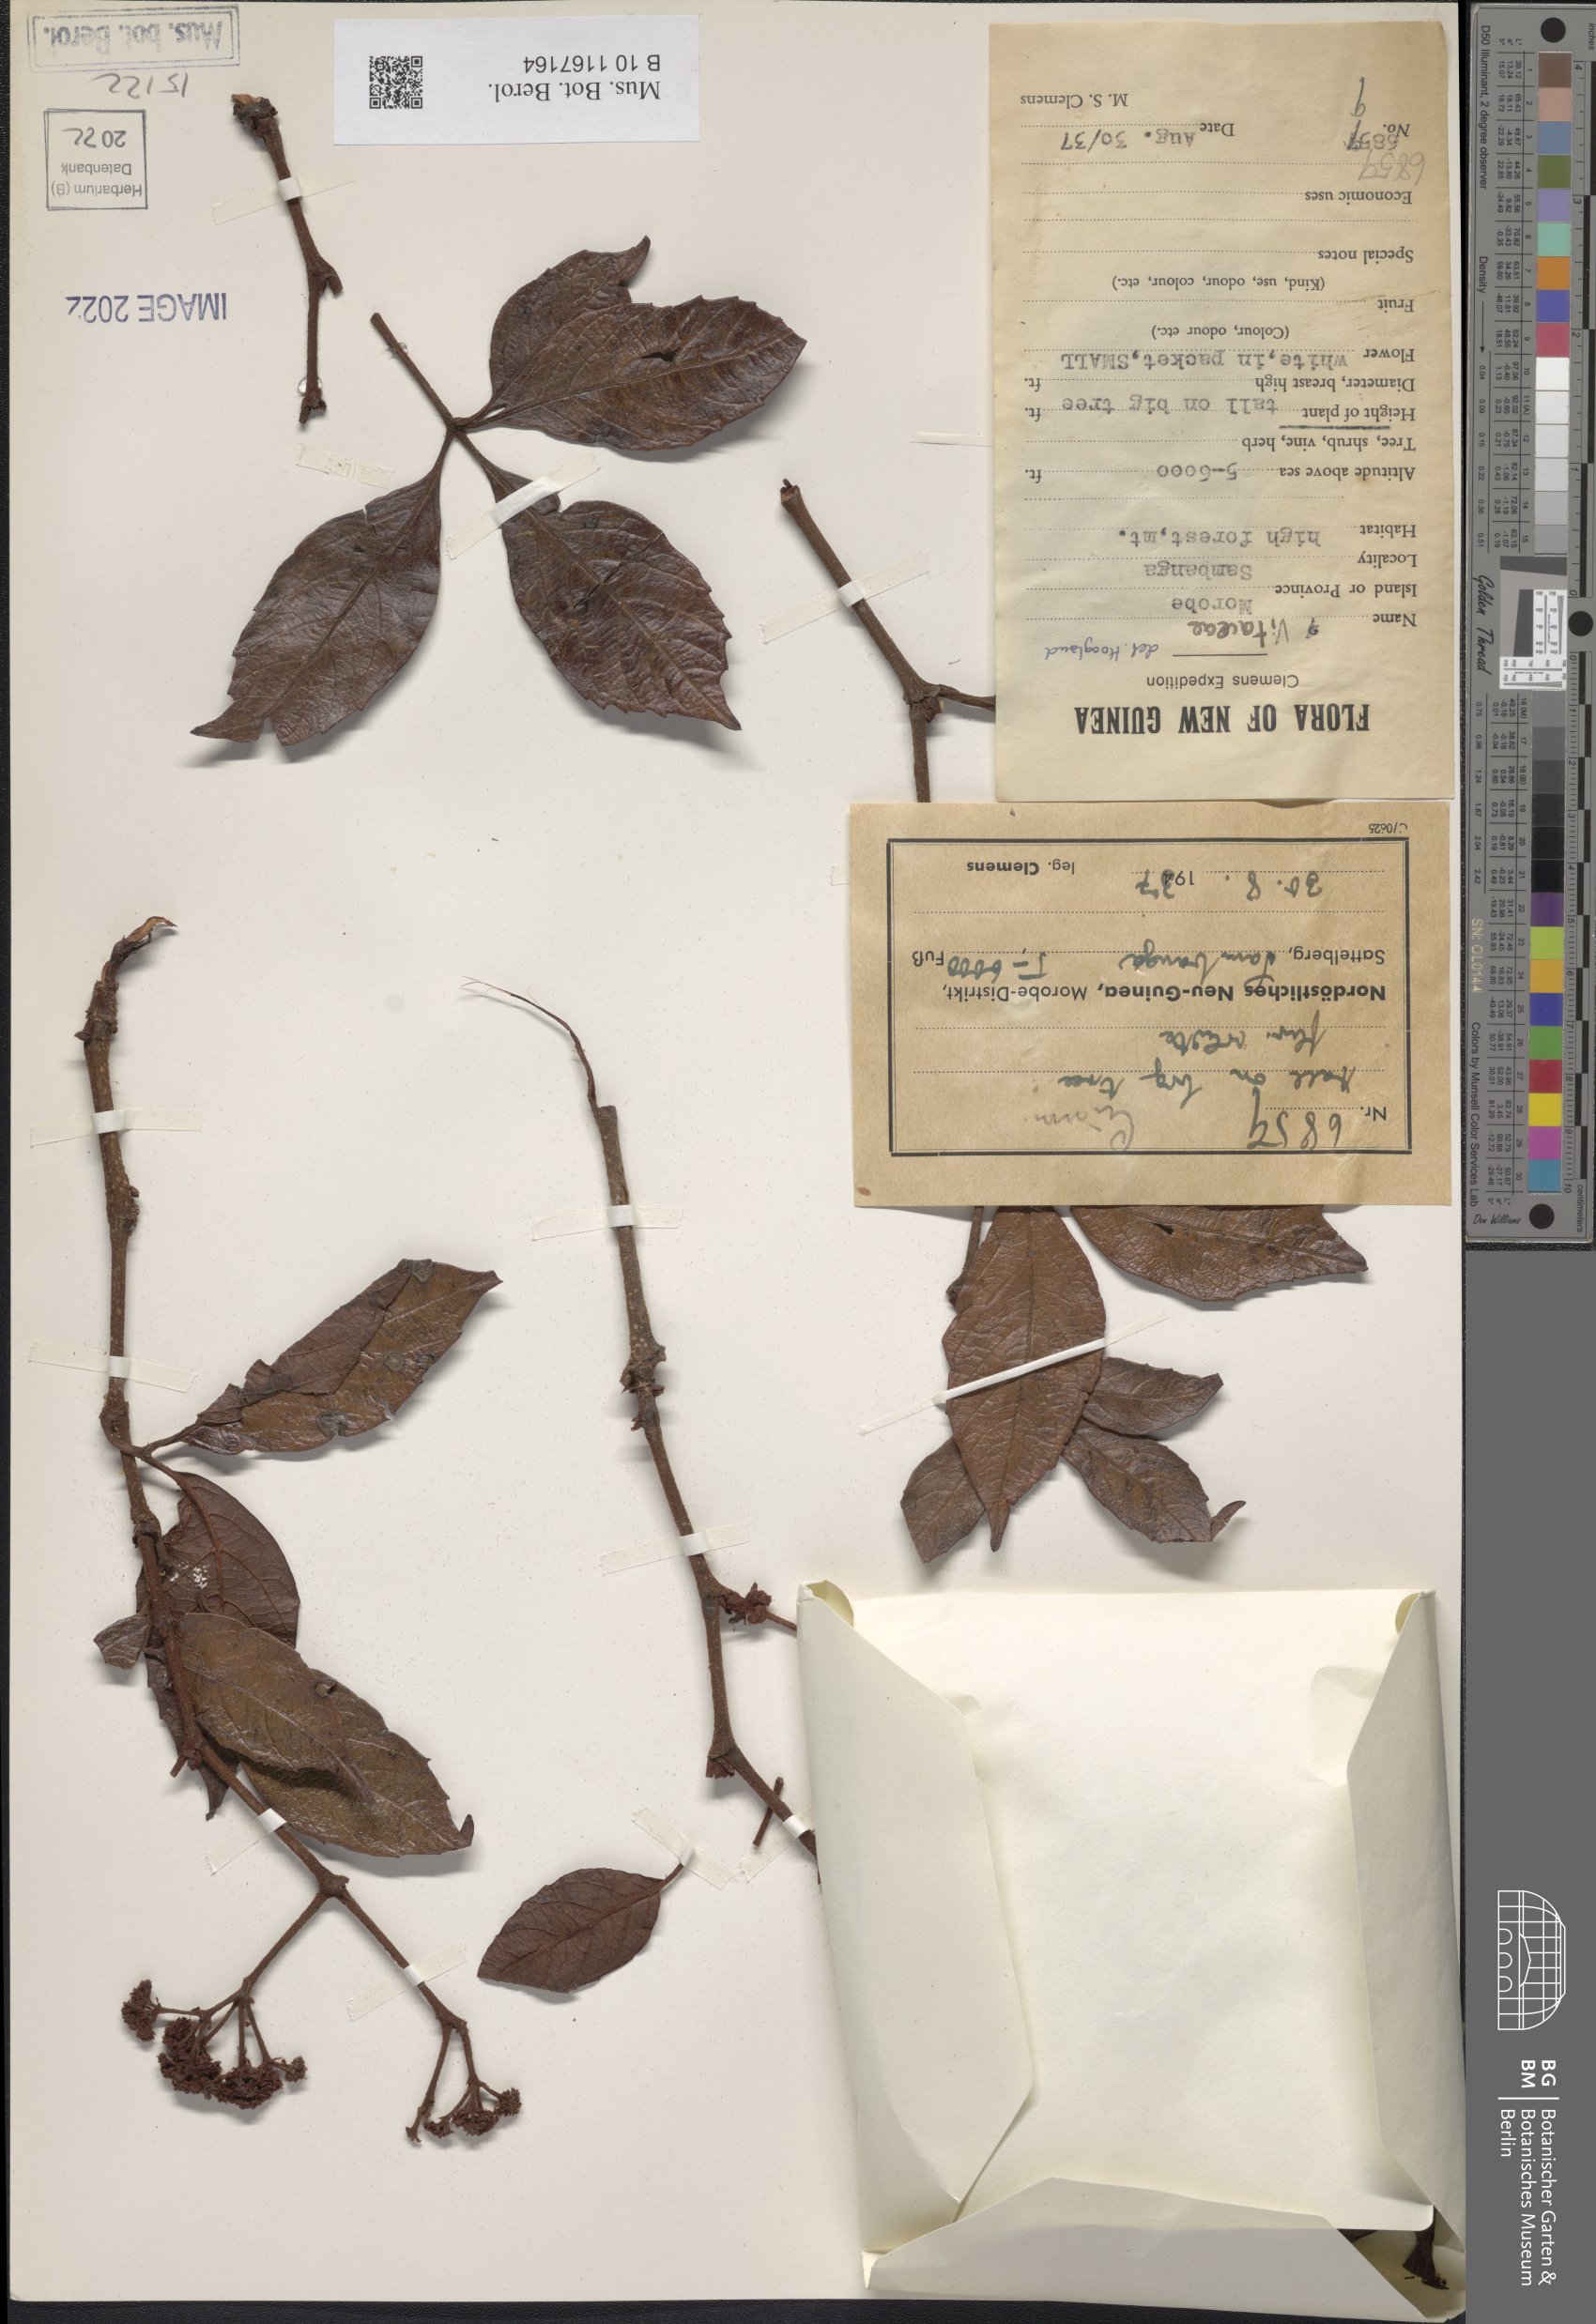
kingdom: Plantae
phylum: Tracheophyta
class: Magnoliopsida
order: Vitales
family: Vitaceae
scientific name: Vitaceae
